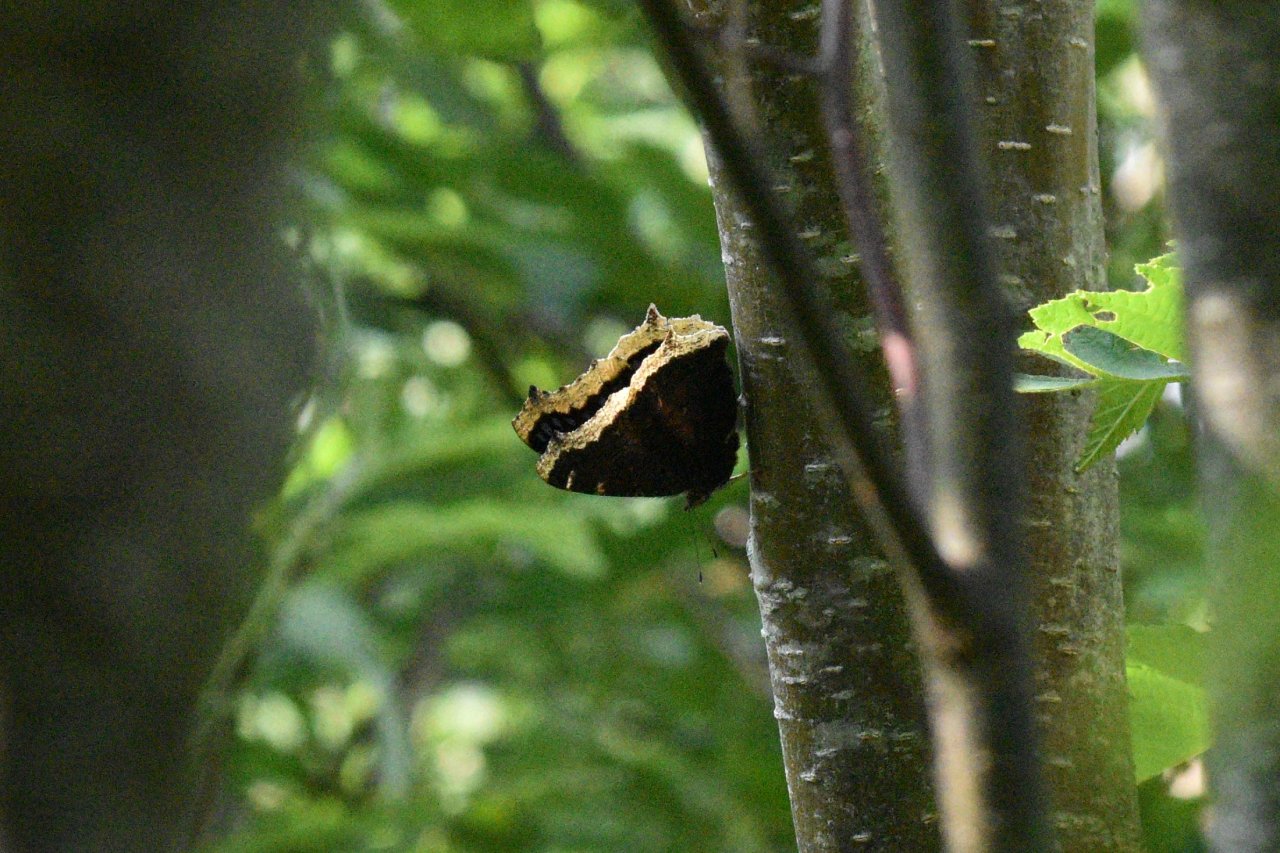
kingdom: Animalia
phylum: Arthropoda
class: Insecta
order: Lepidoptera
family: Nymphalidae
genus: Nymphalis
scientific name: Nymphalis antiopa
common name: Mourning Cloak
